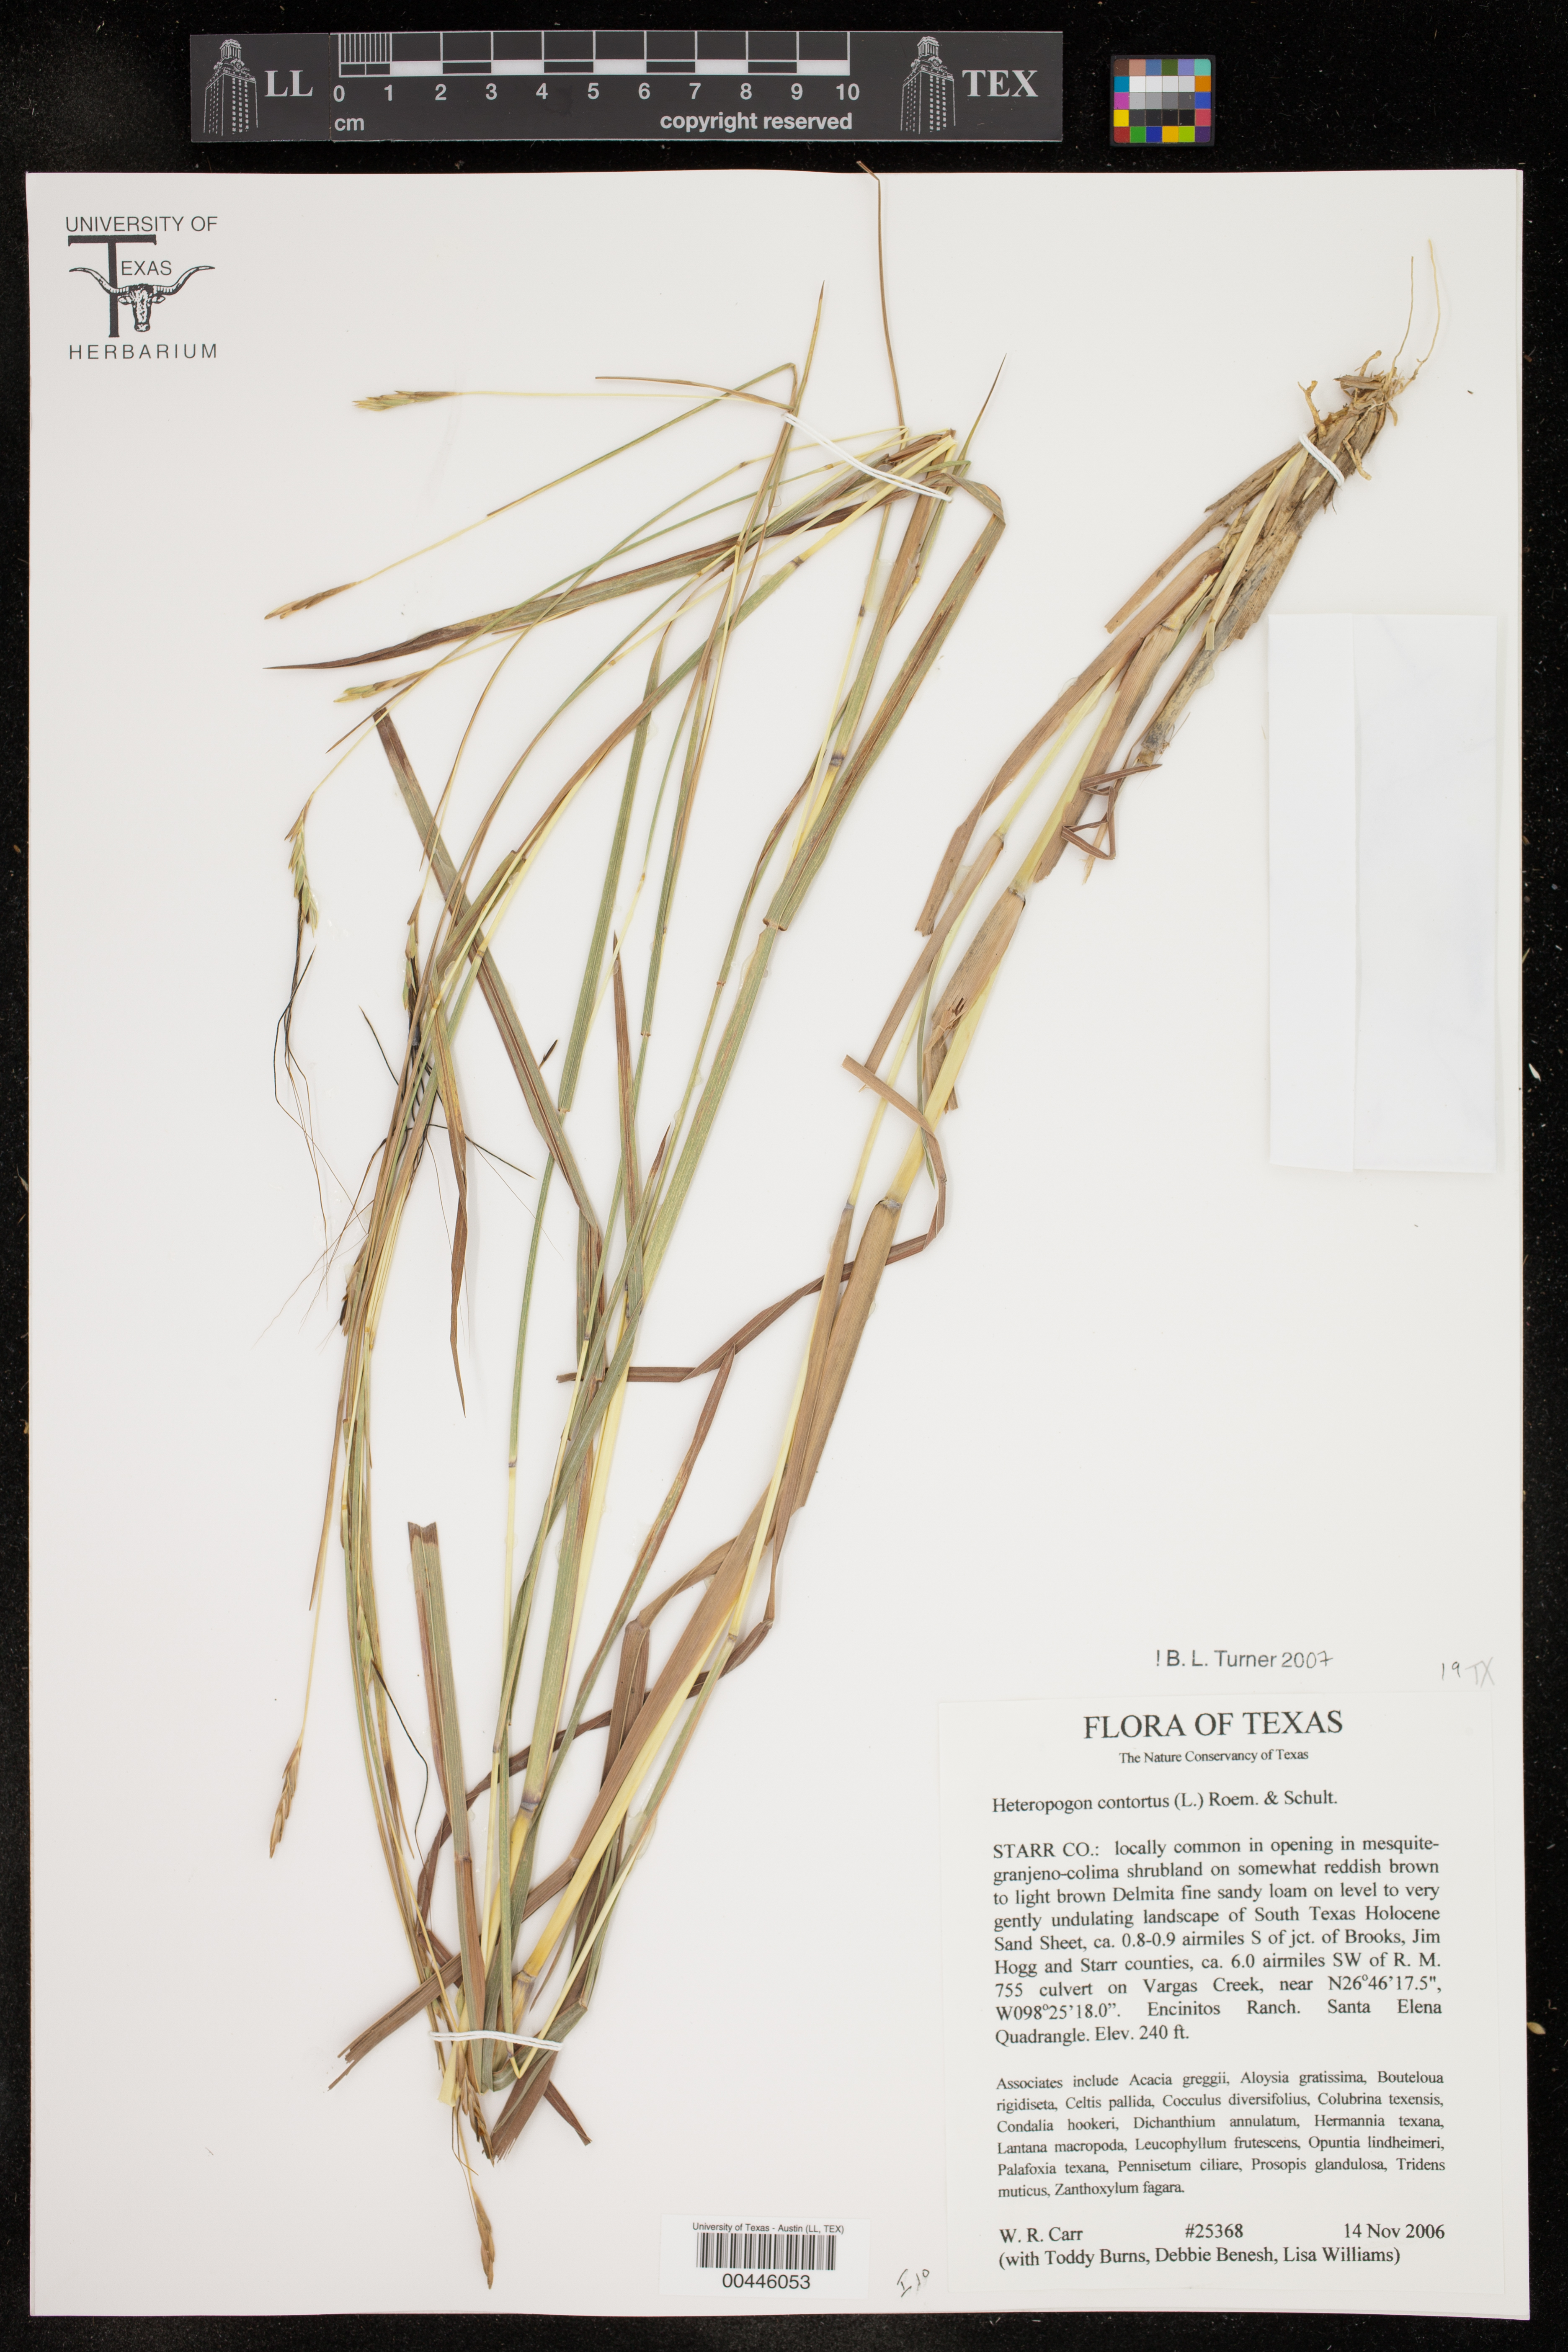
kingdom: Plantae
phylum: Tracheophyta
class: Liliopsida
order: Poales
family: Poaceae
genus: Heteropogon
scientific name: Heteropogon contortus
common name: Tanglehead
